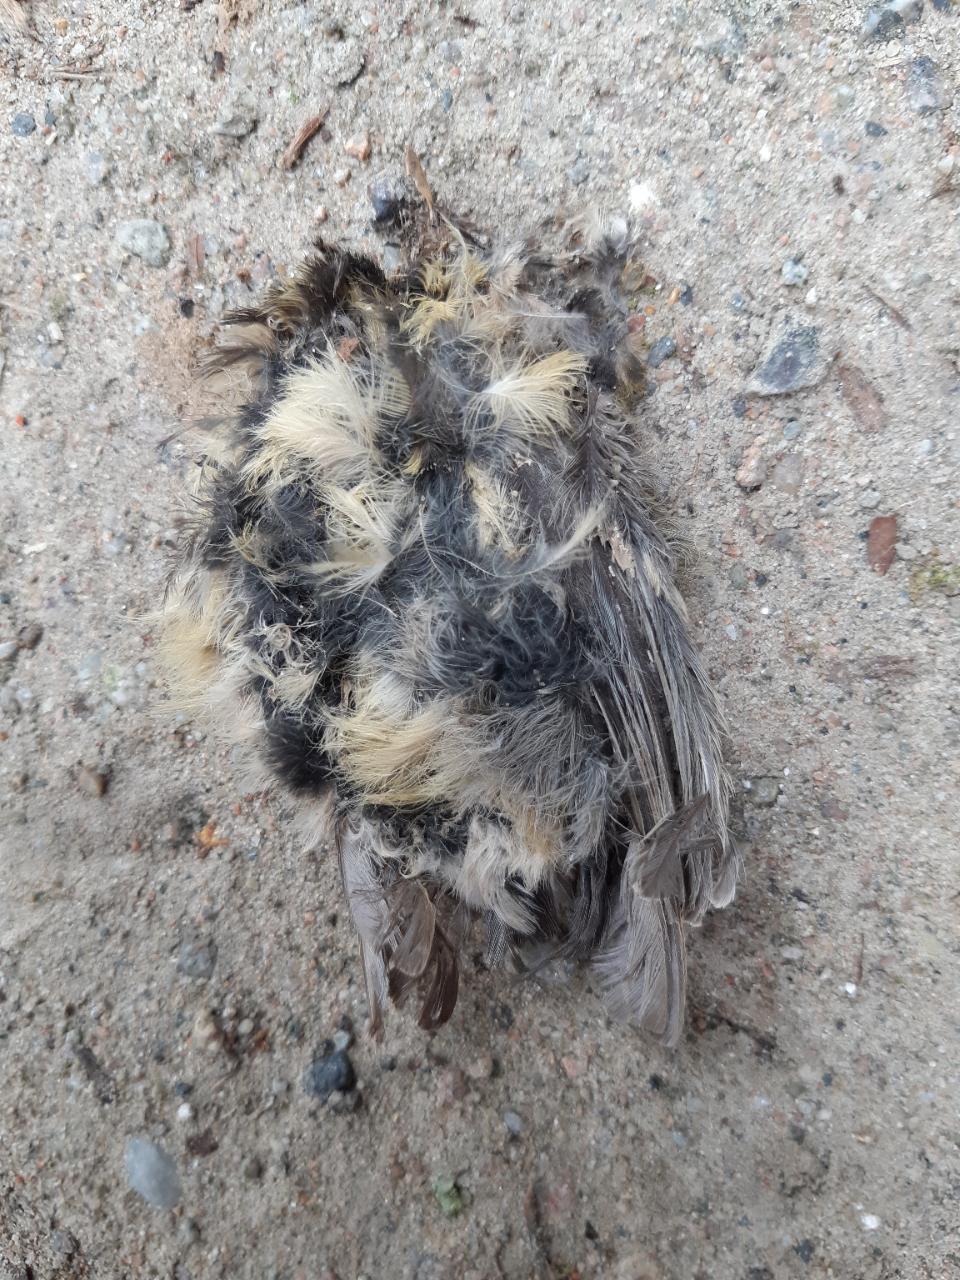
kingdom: Animalia
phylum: Chordata
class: Aves
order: Passeriformes
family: Paridae
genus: Parus
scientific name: Parus major
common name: Great tit
